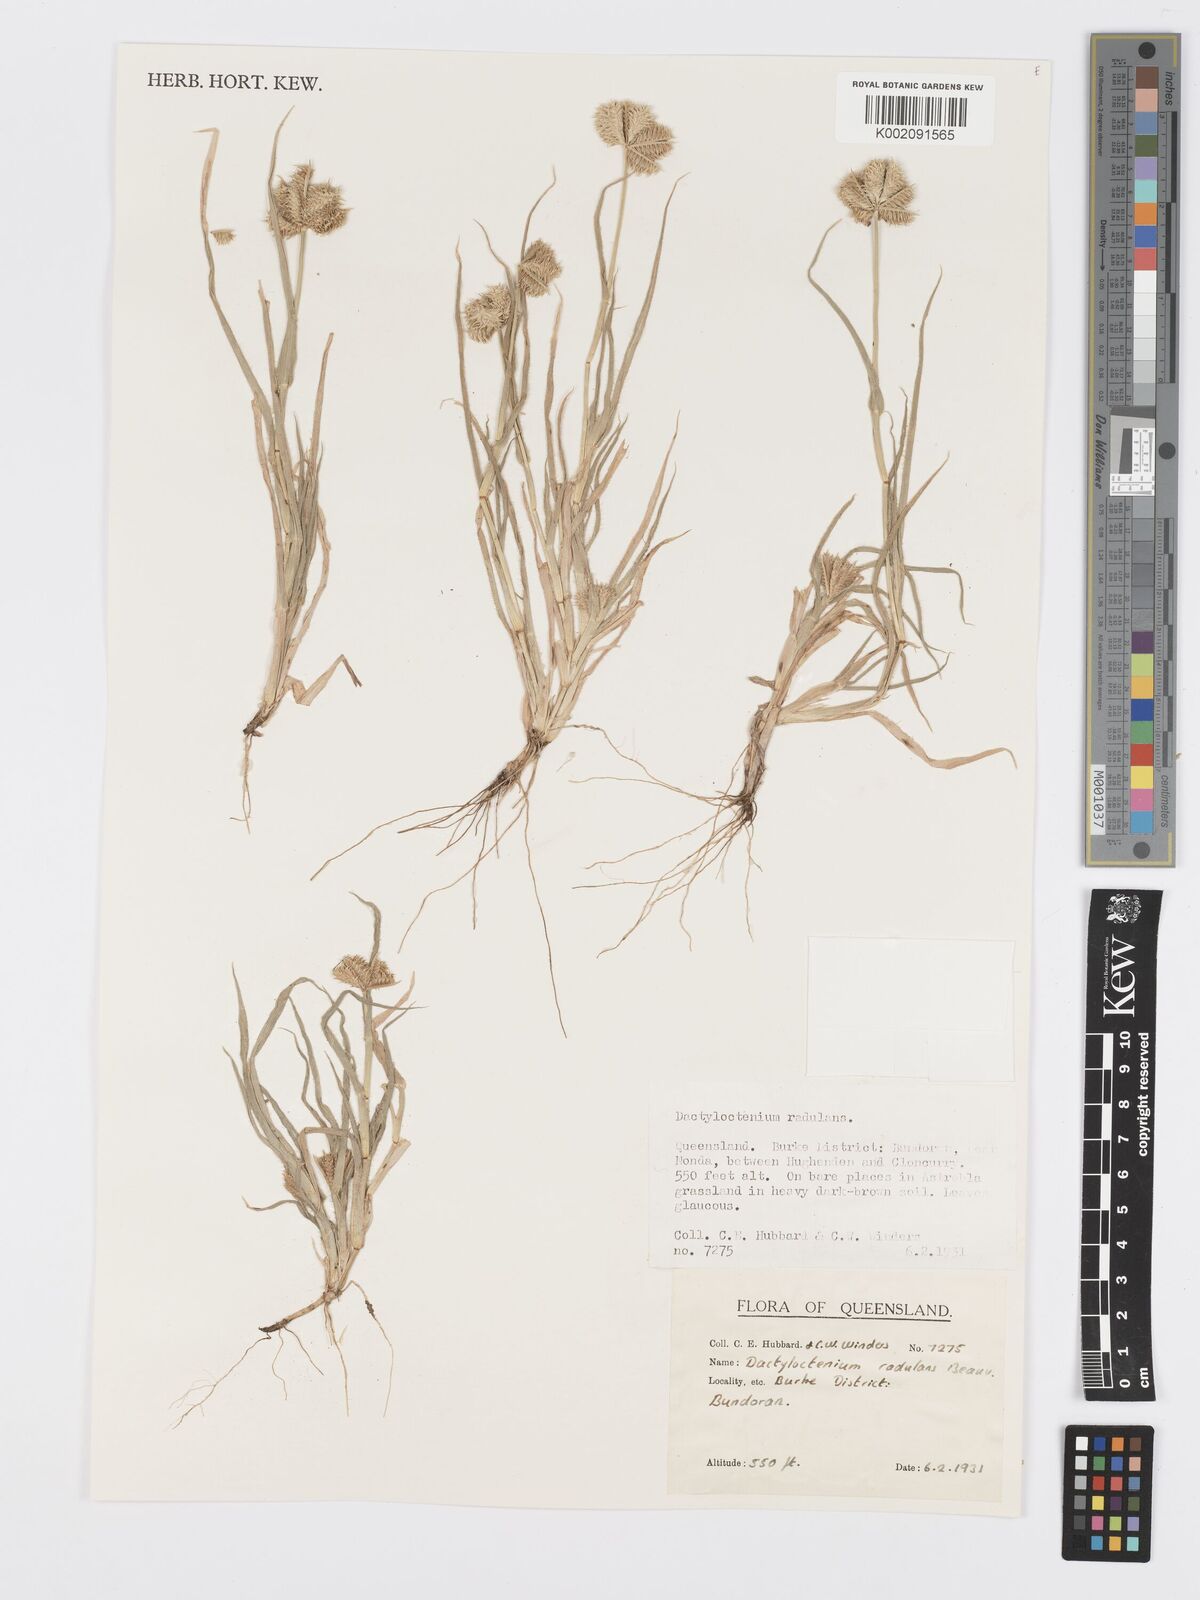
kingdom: Plantae
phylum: Tracheophyta
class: Liliopsida
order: Poales
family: Poaceae
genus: Dactyloctenium
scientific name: Dactyloctenium radulans
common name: Button-grass
